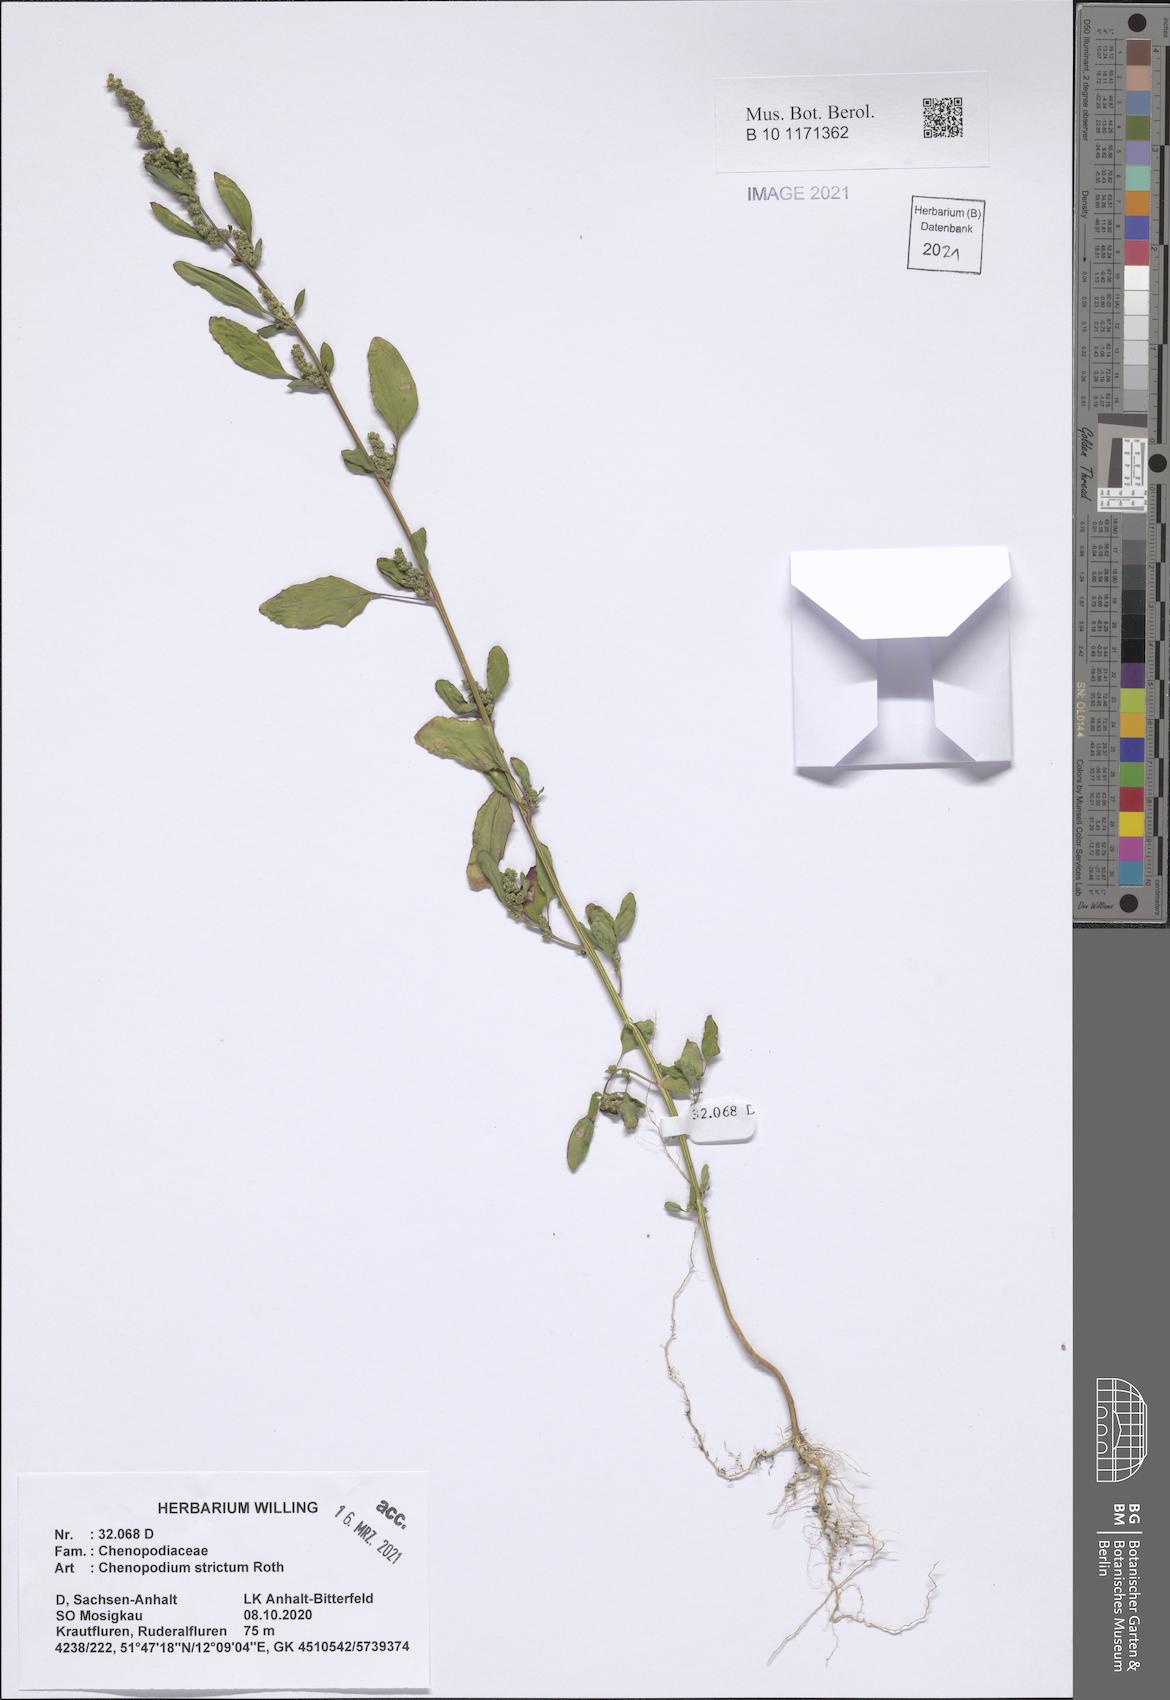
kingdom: Plantae
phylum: Tracheophyta
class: Magnoliopsida
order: Caryophyllales
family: Amaranthaceae
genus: Chenopodium
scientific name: Chenopodium album
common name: Fat-hen
